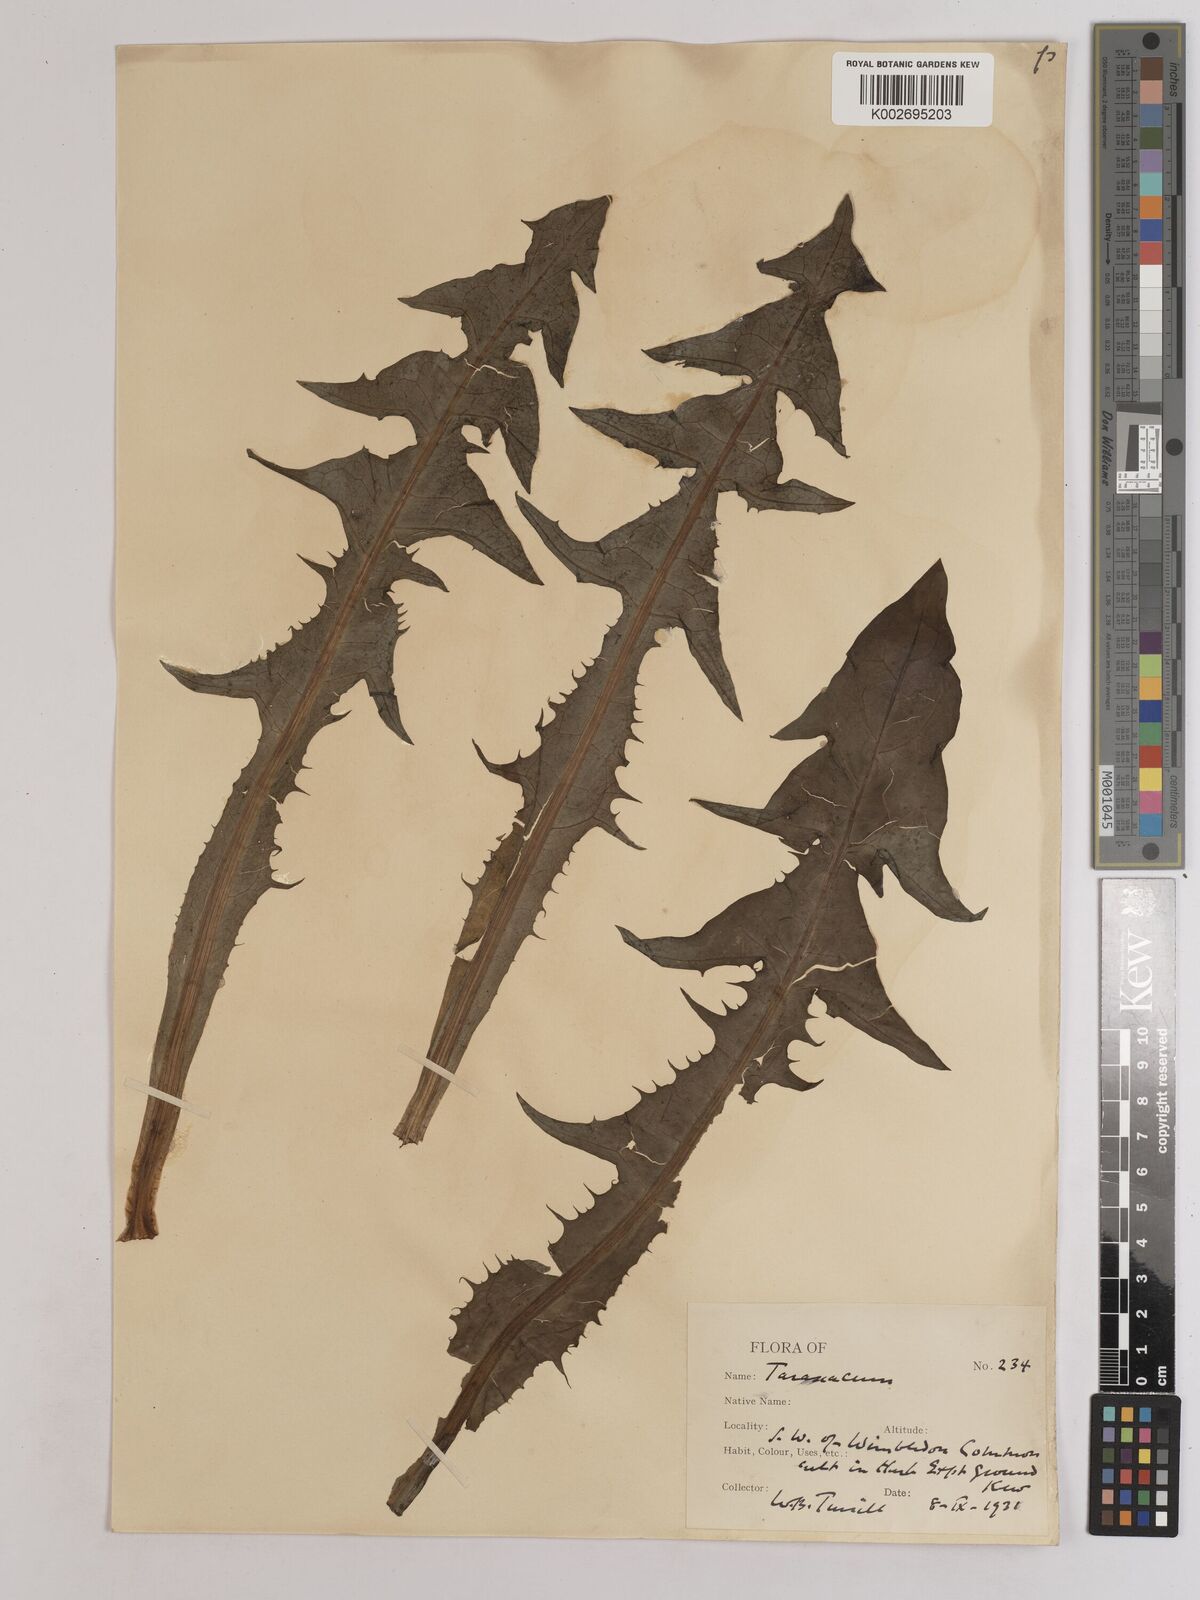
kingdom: Plantae
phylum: Tracheophyta
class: Magnoliopsida
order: Asterales
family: Asteraceae
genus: Taraxacum
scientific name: Taraxacum officinale
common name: Common dandelion
